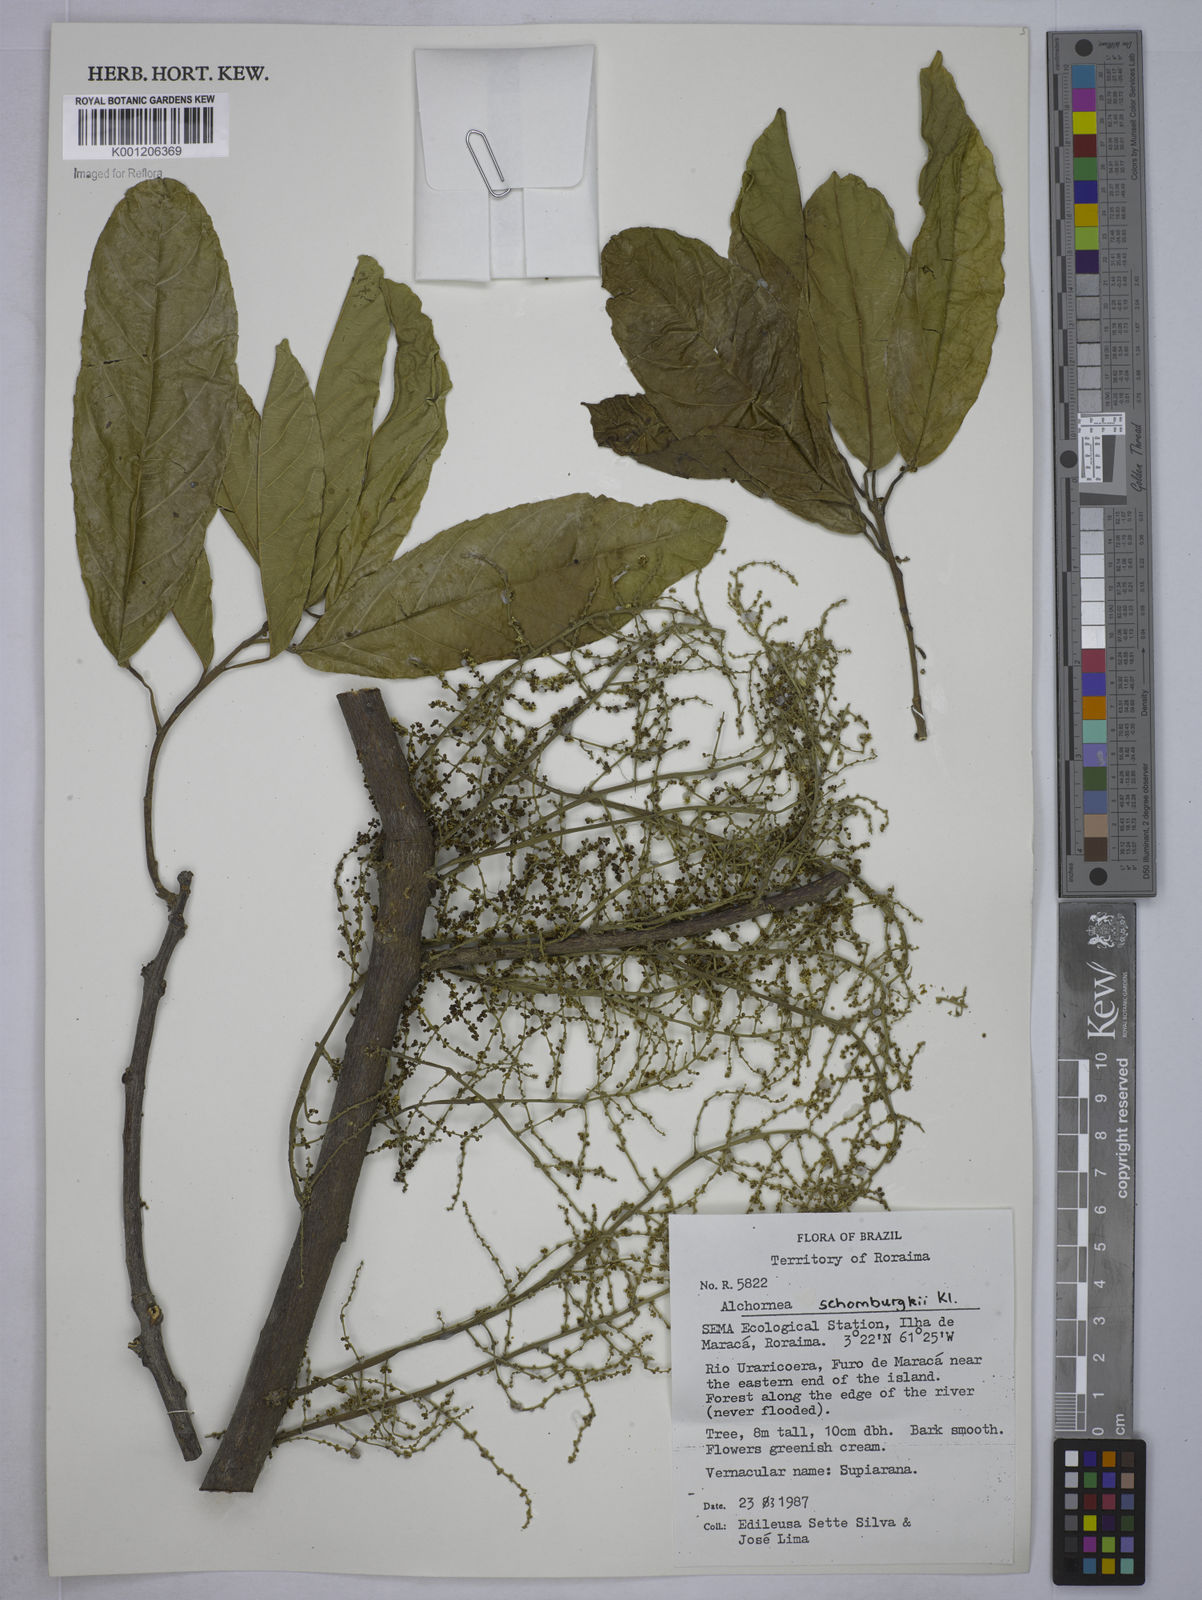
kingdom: Plantae
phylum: Tracheophyta
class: Magnoliopsida
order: Malpighiales
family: Euphorbiaceae
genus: Alchornea
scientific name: Alchornea discolor
